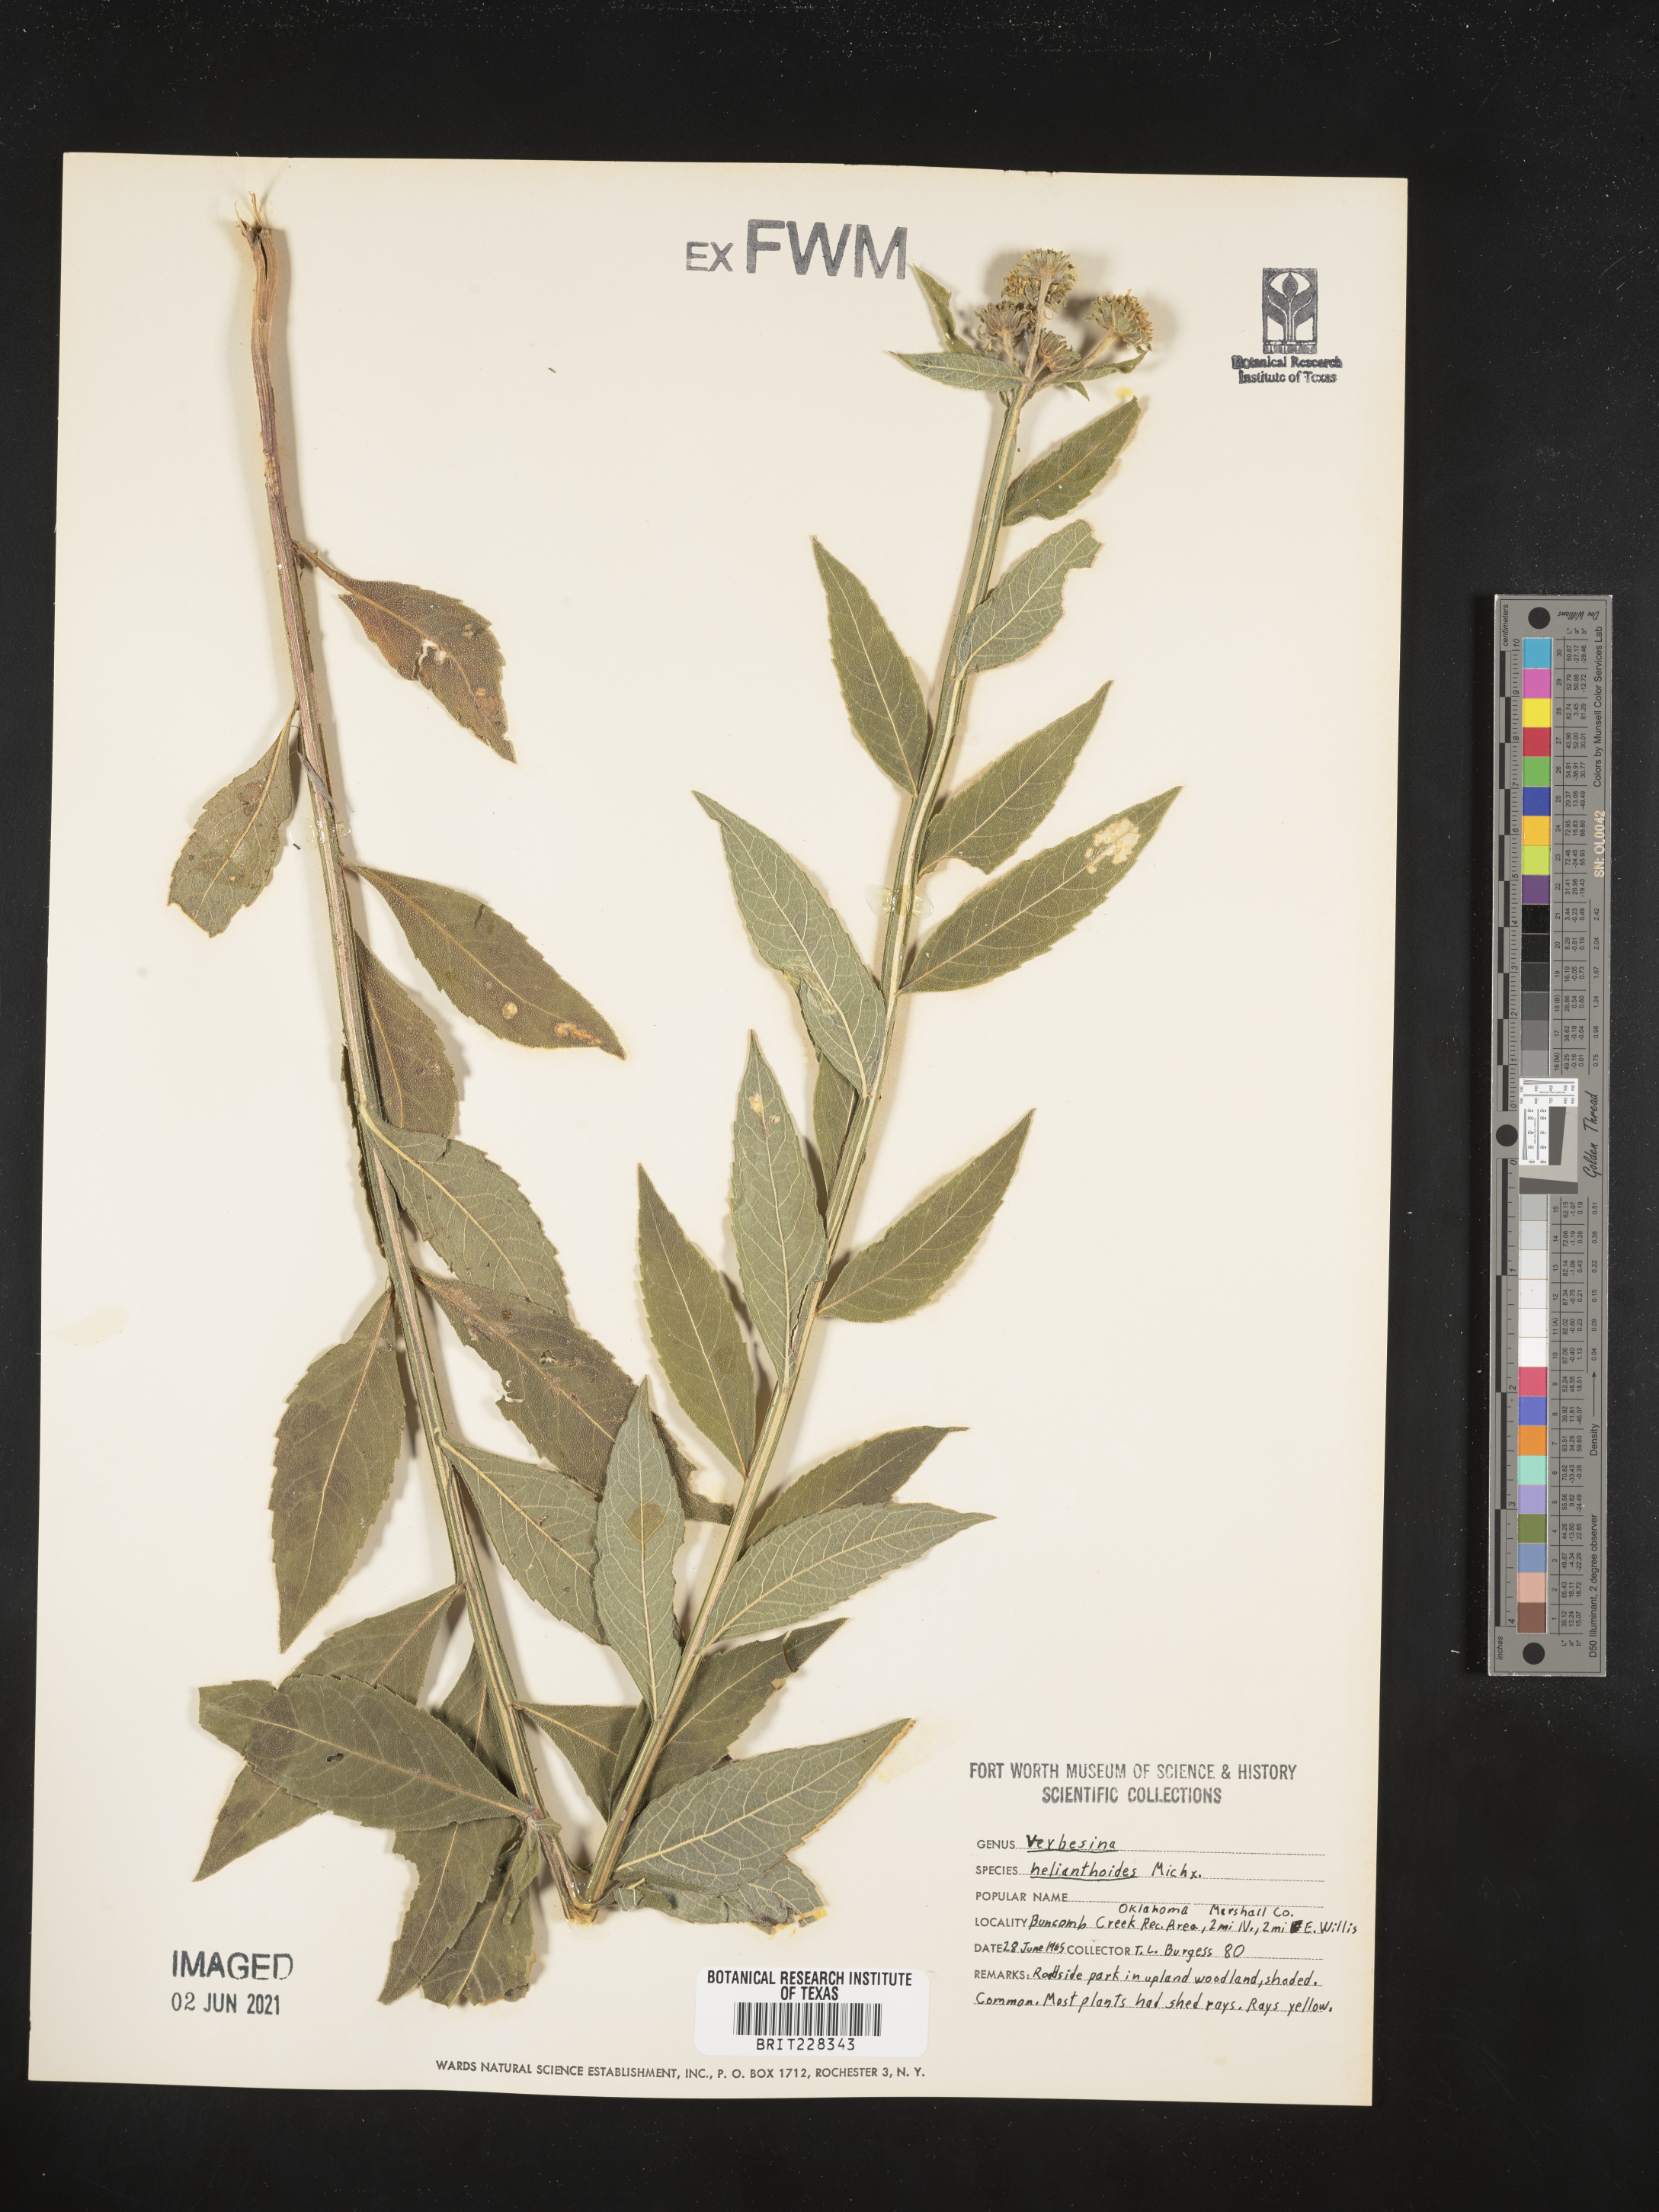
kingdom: Plantae
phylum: Tracheophyta
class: Magnoliopsida
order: Asterales
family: Asteraceae
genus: Verbesina
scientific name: Verbesina helianthoides
